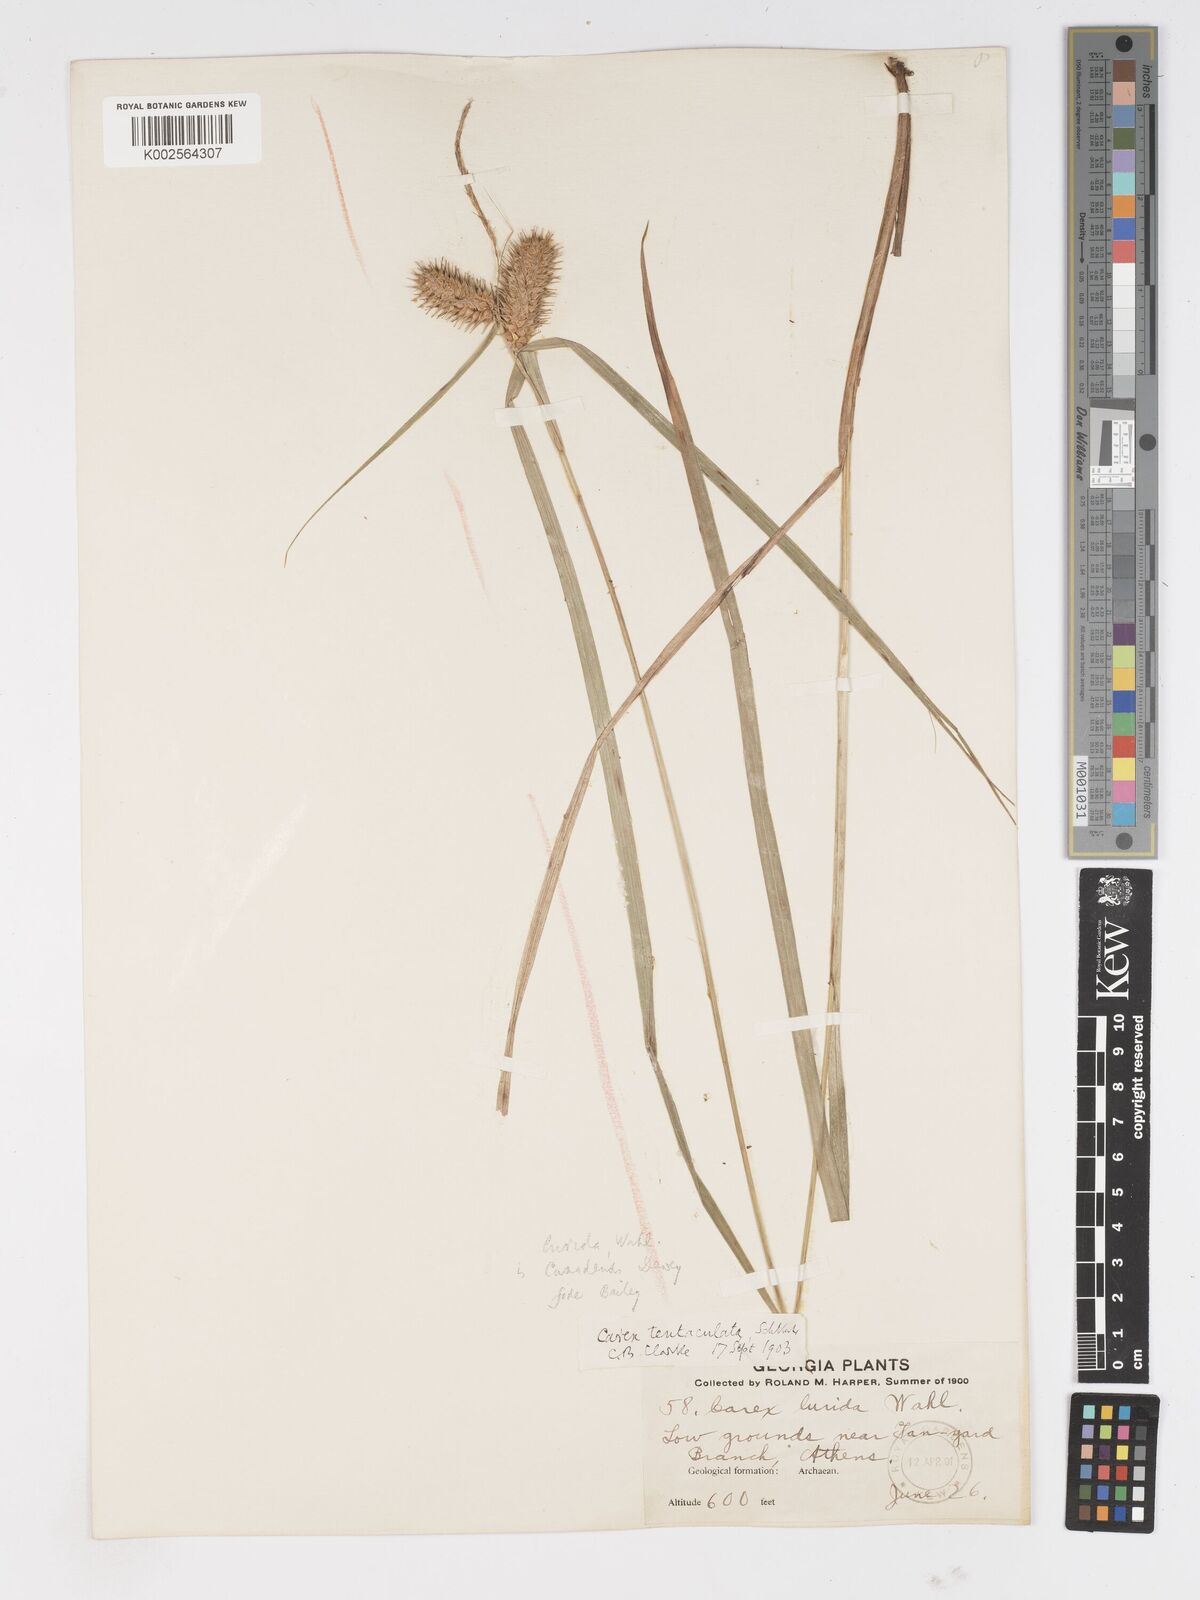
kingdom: Plantae
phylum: Tracheophyta
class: Liliopsida
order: Poales
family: Cyperaceae
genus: Carex
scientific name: Carex lurida
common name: Sallow sedge
